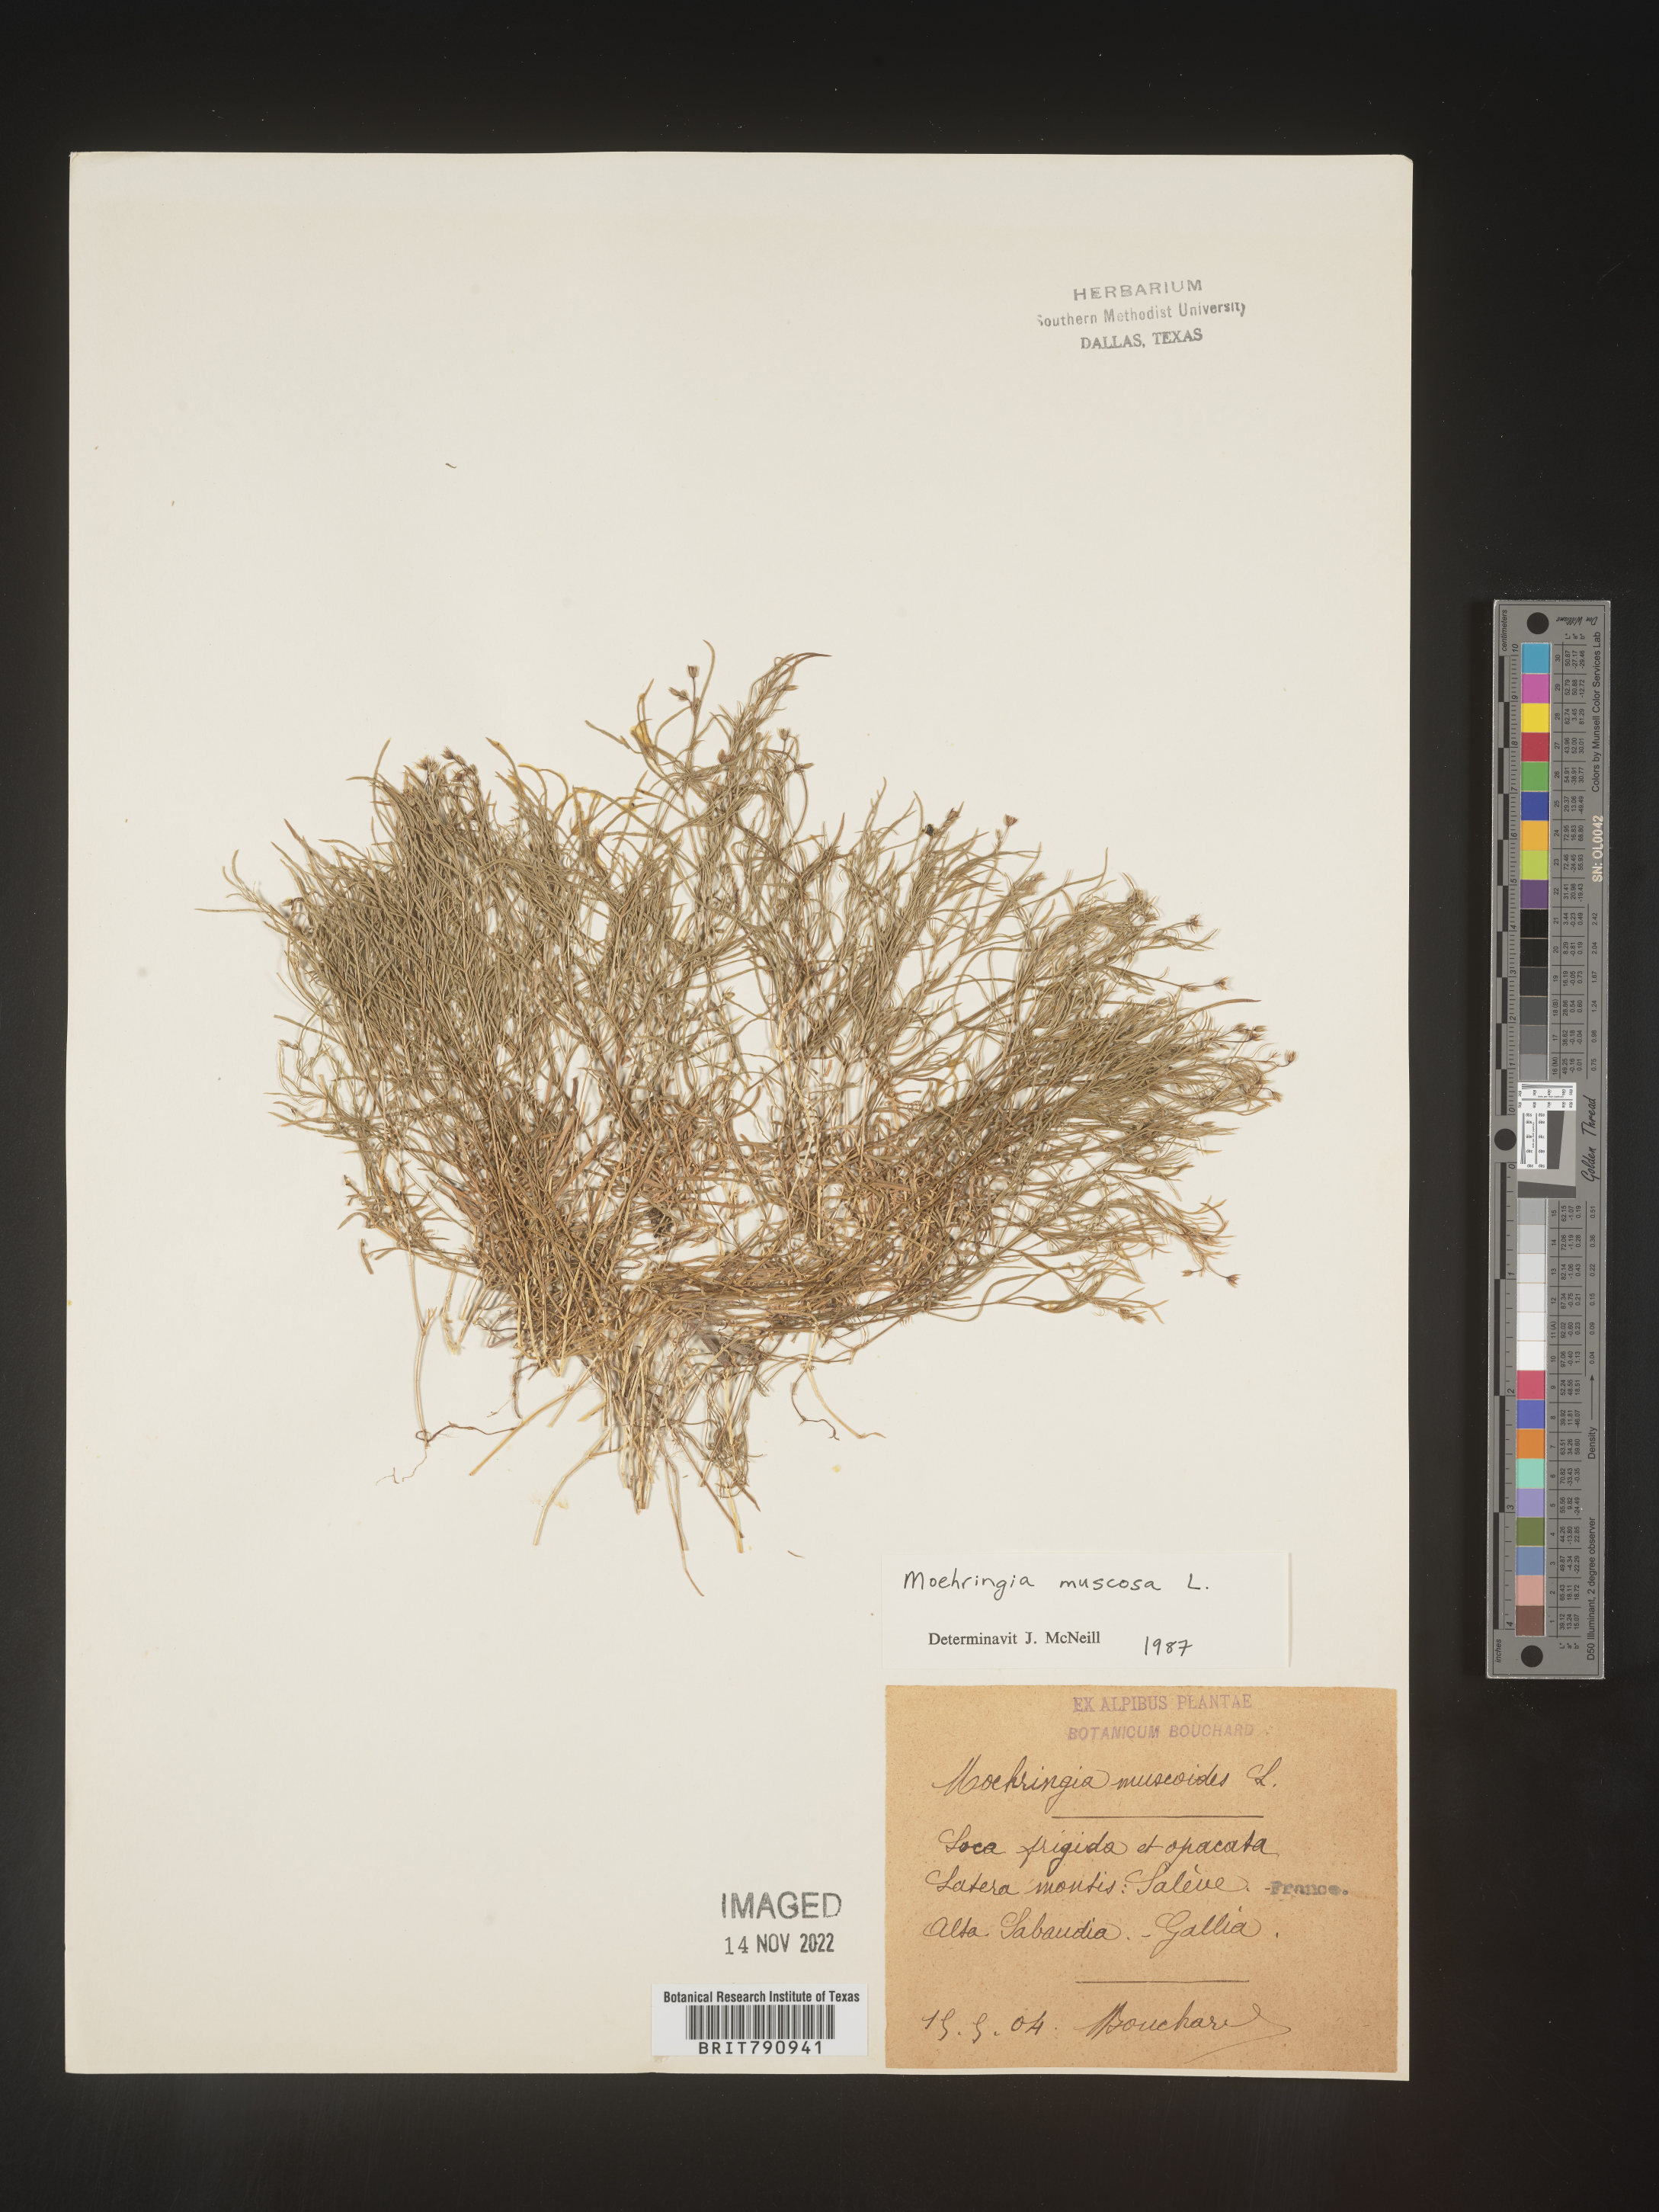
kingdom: Plantae
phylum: Tracheophyta
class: Magnoliopsida
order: Caryophyllales
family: Caryophyllaceae
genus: Moehringia
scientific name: Moehringia
